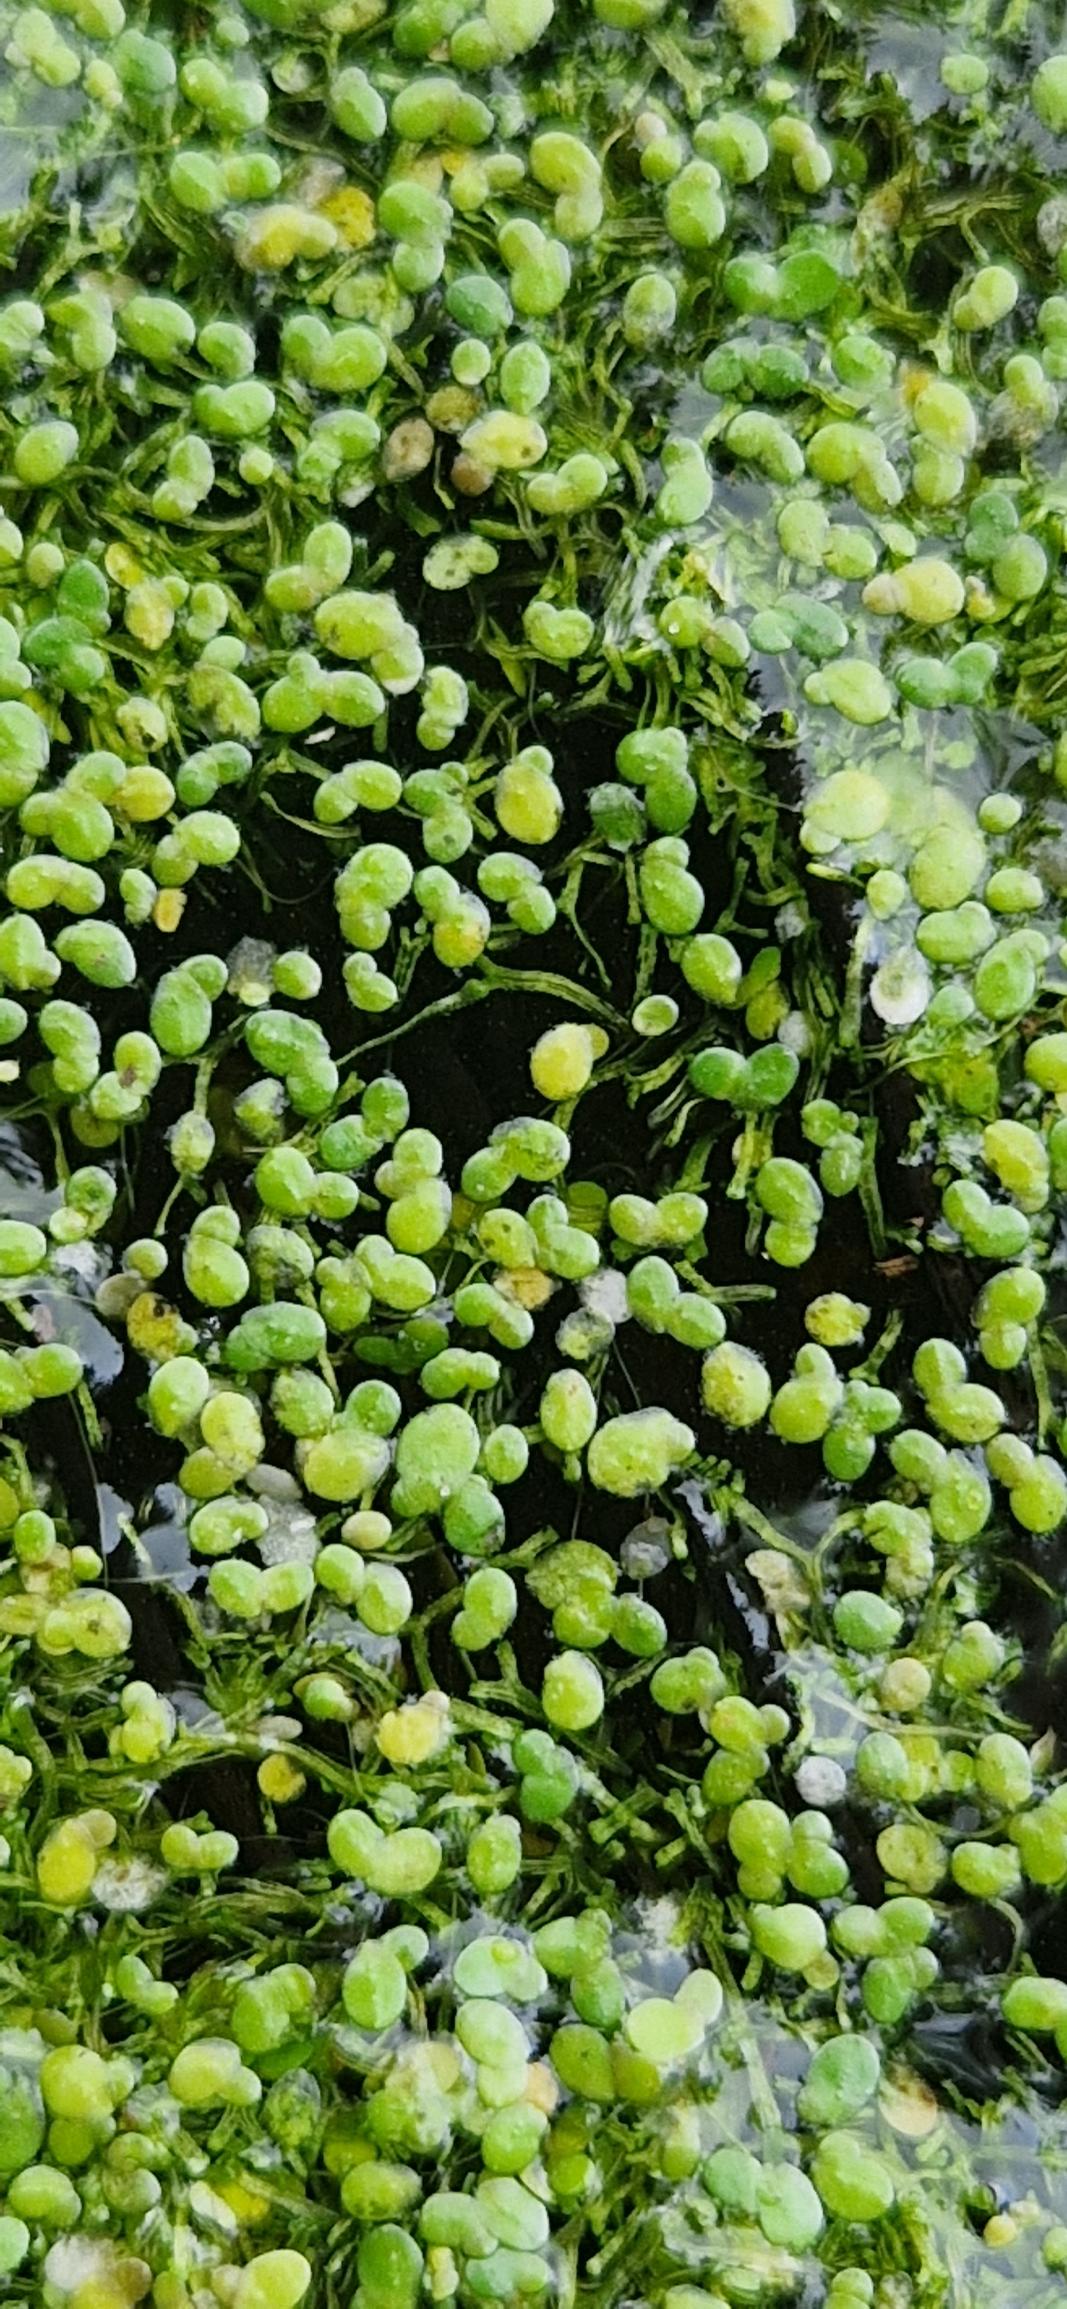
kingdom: Plantae
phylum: Tracheophyta
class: Liliopsida
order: Alismatales
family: Araceae
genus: Lemna
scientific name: Lemna minuta
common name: Enstrenget andemad
